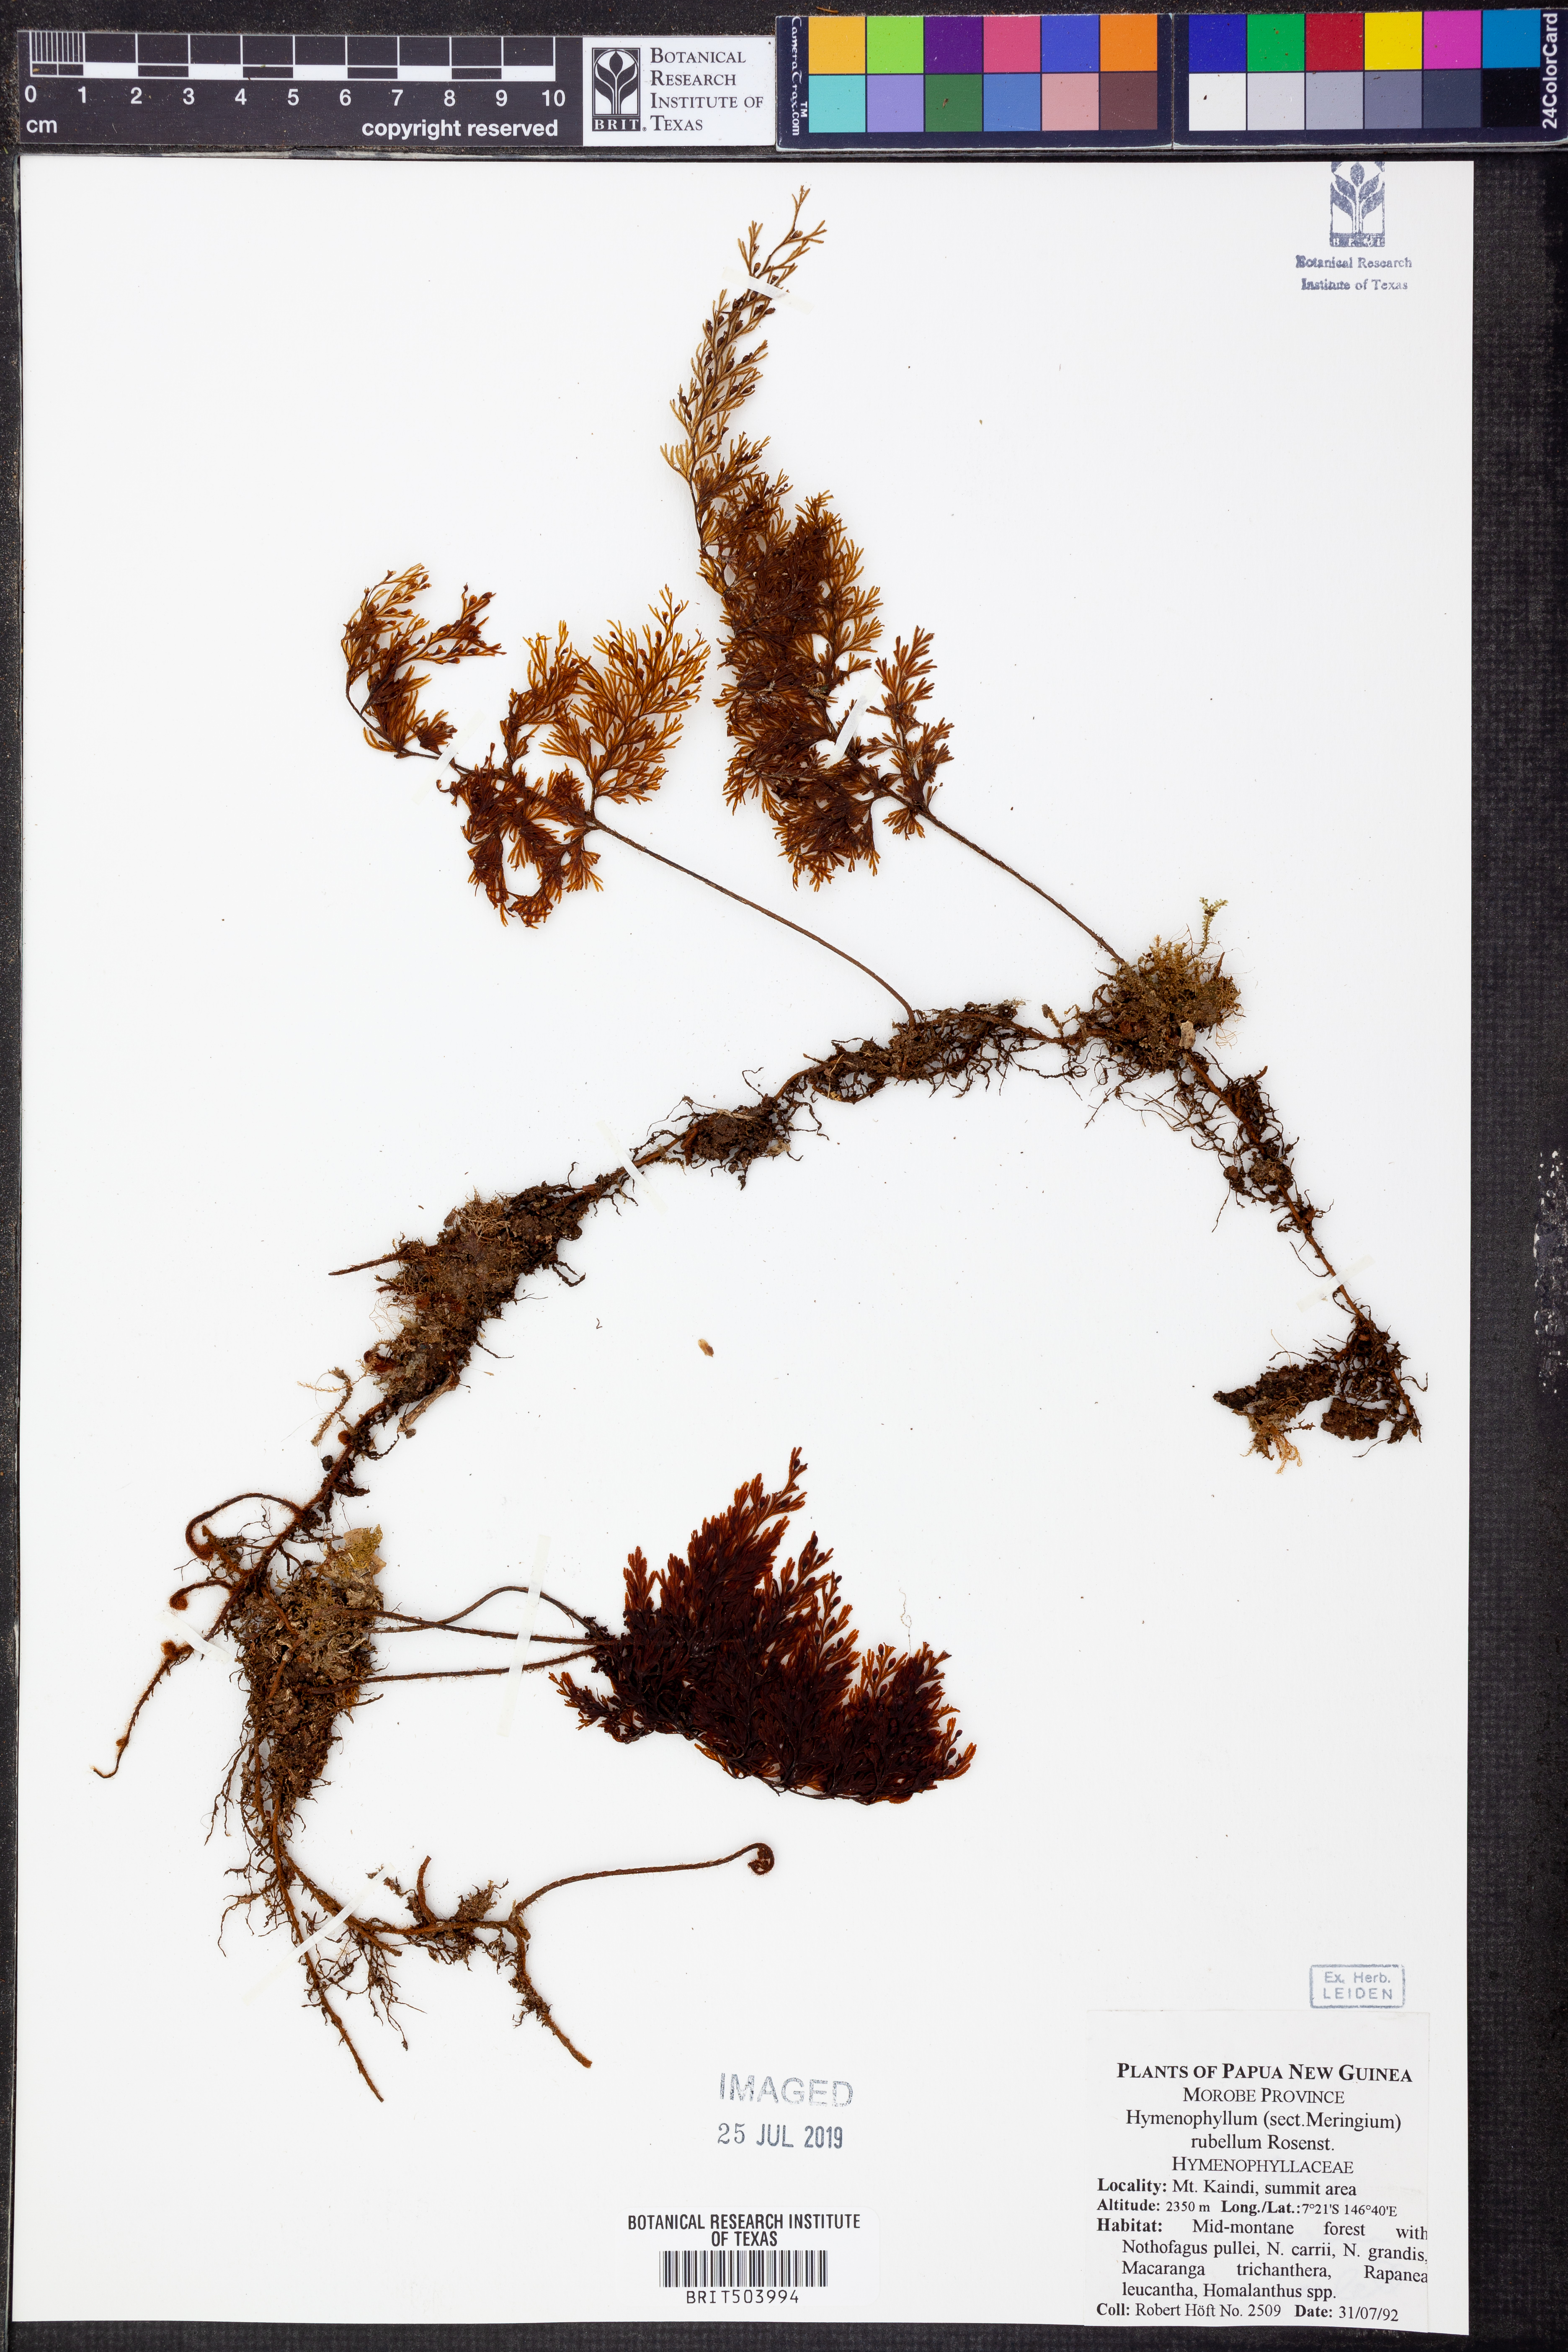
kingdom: Plantae
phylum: Tracheophyta
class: Polypodiopsida
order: Hymenophyllales
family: Hymenophyllaceae
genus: Hymenophyllum
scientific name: Hymenophyllum rubellum
